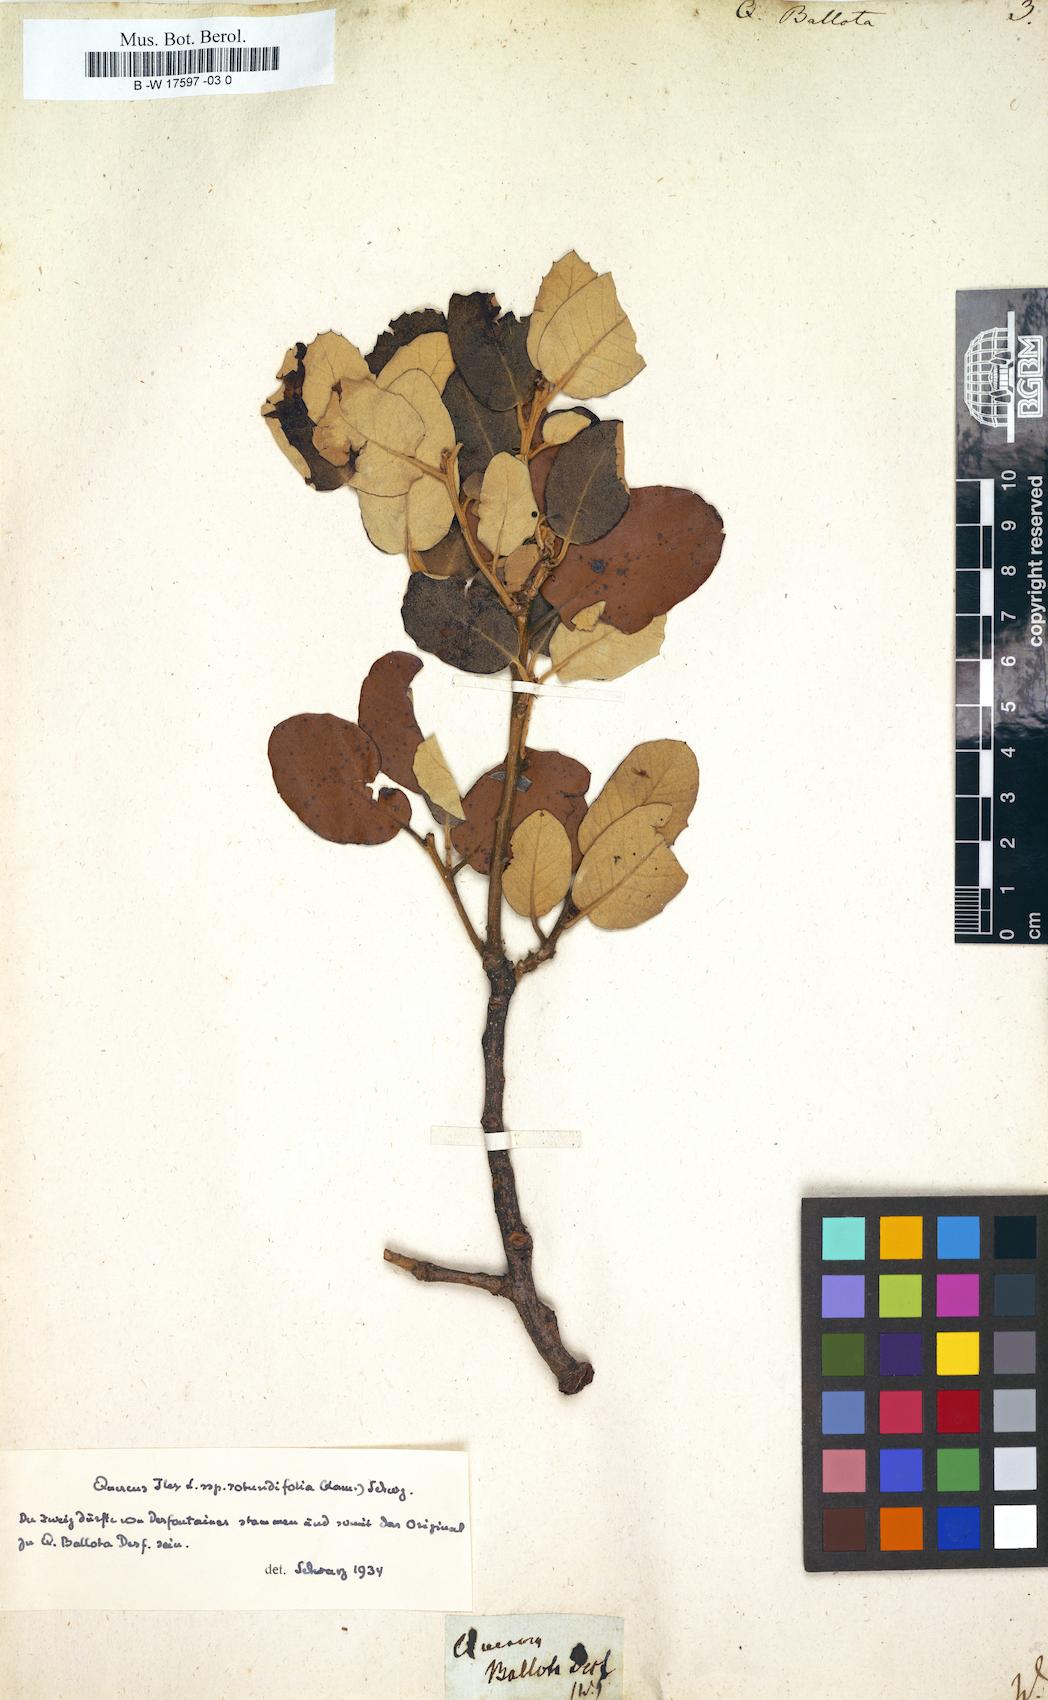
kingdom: Plantae
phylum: Tracheophyta
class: Magnoliopsida
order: Fagales
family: Fagaceae
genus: Quercus
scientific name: Quercus rotundifolia
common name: Holm oak
